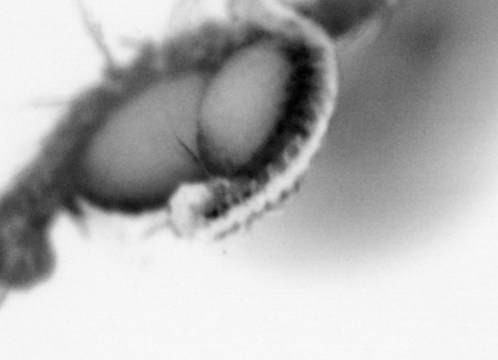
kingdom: Animalia
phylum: Annelida
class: Polychaeta
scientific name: Polychaeta
